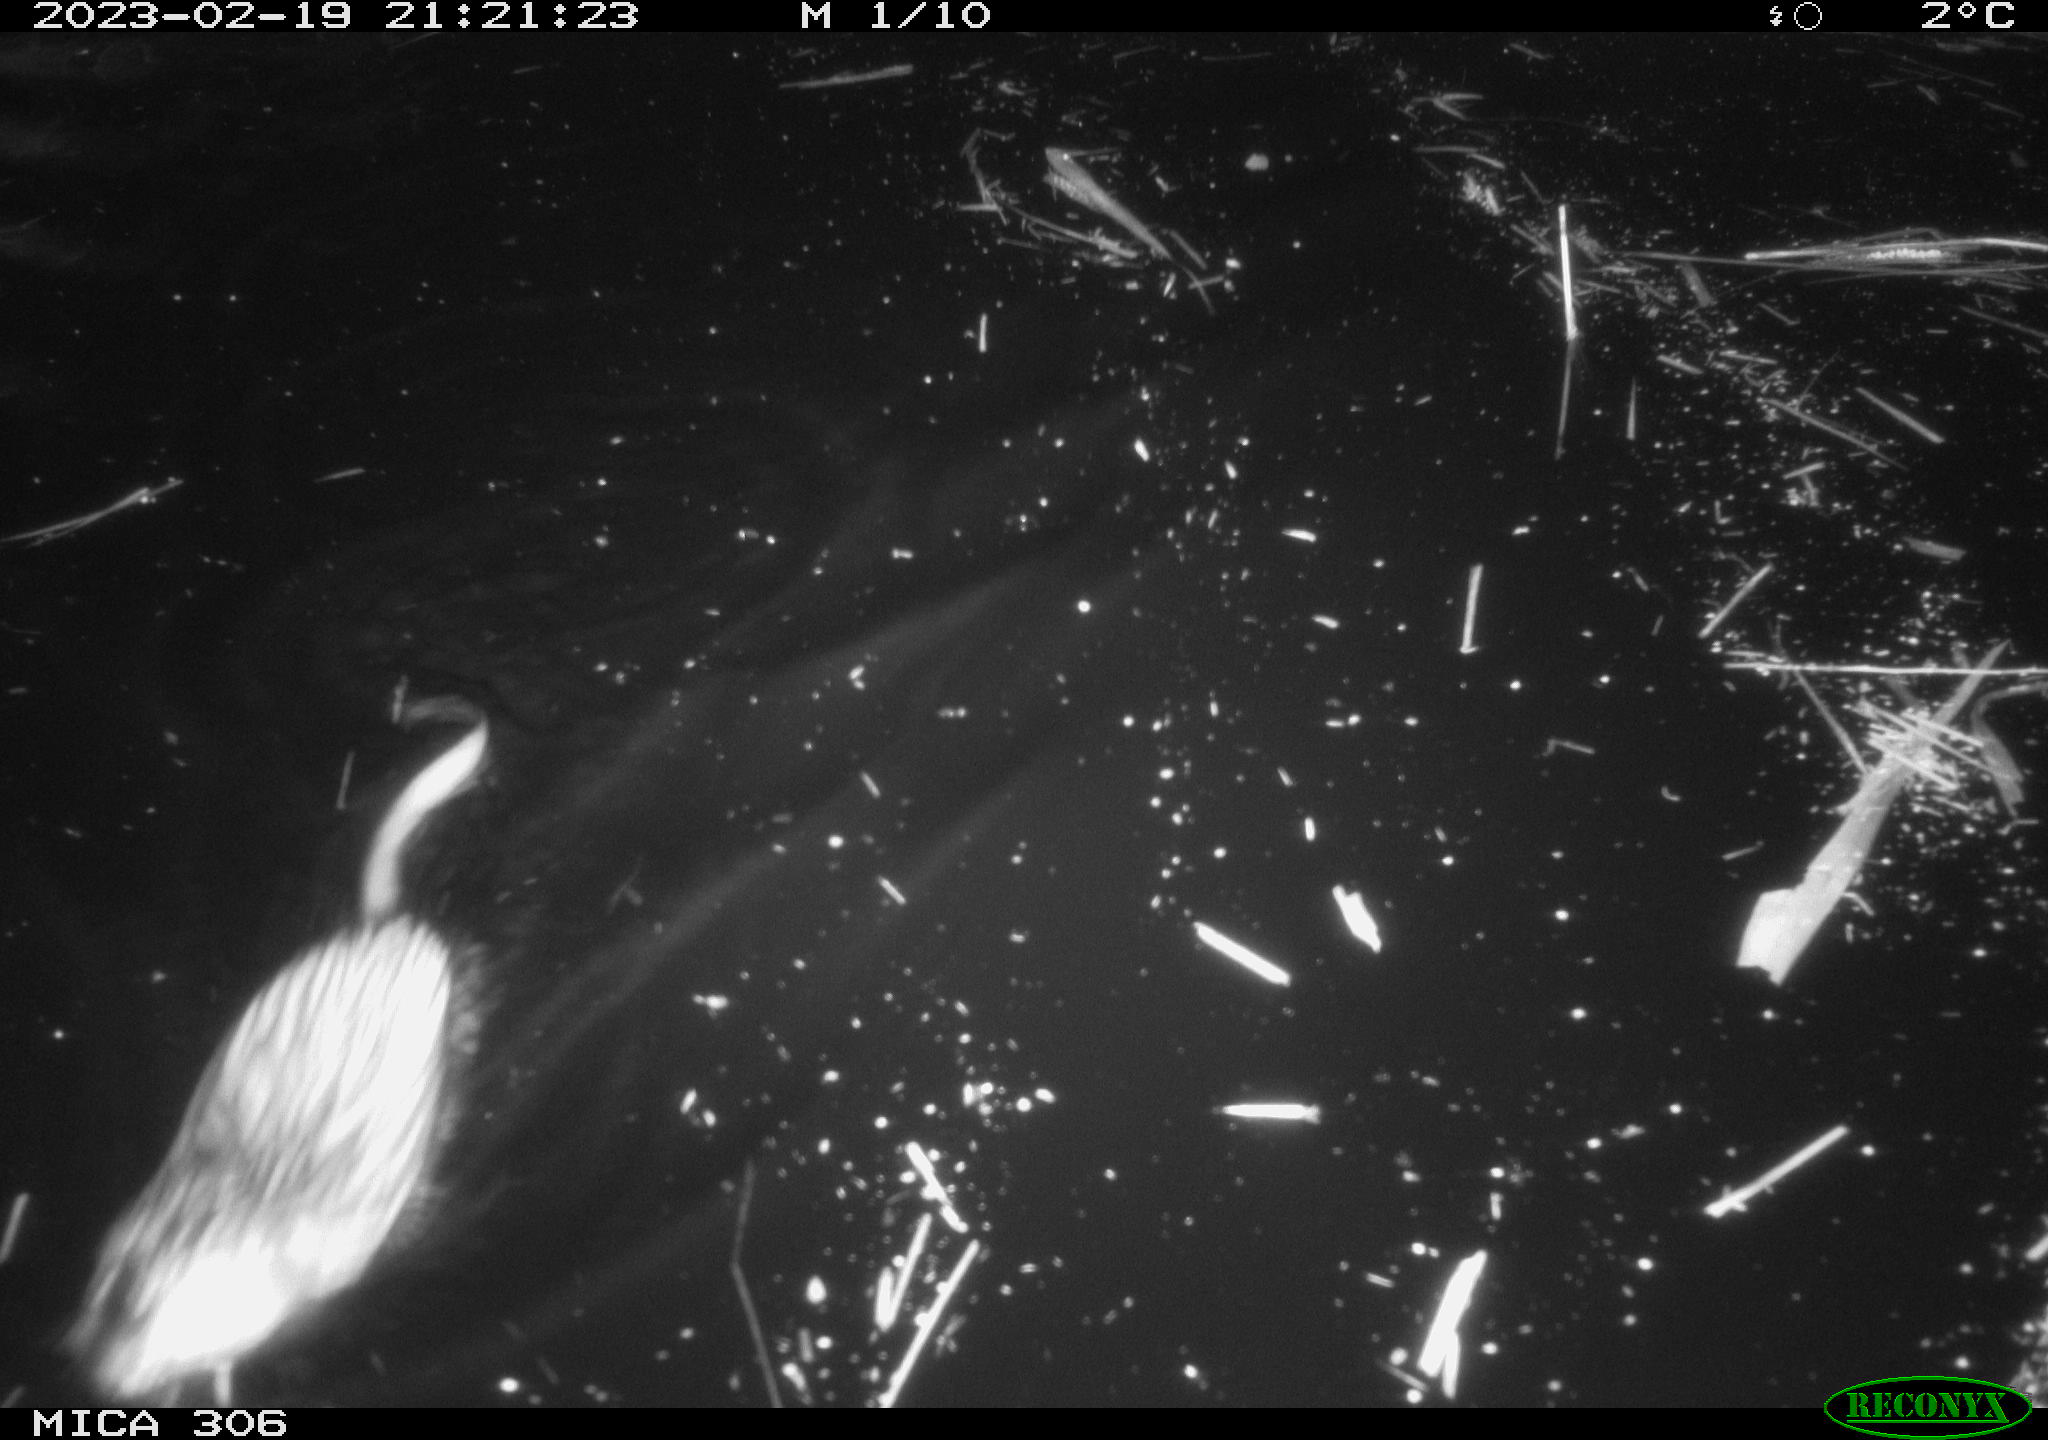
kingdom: Animalia
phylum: Chordata
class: Mammalia
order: Rodentia
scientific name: Rodentia
